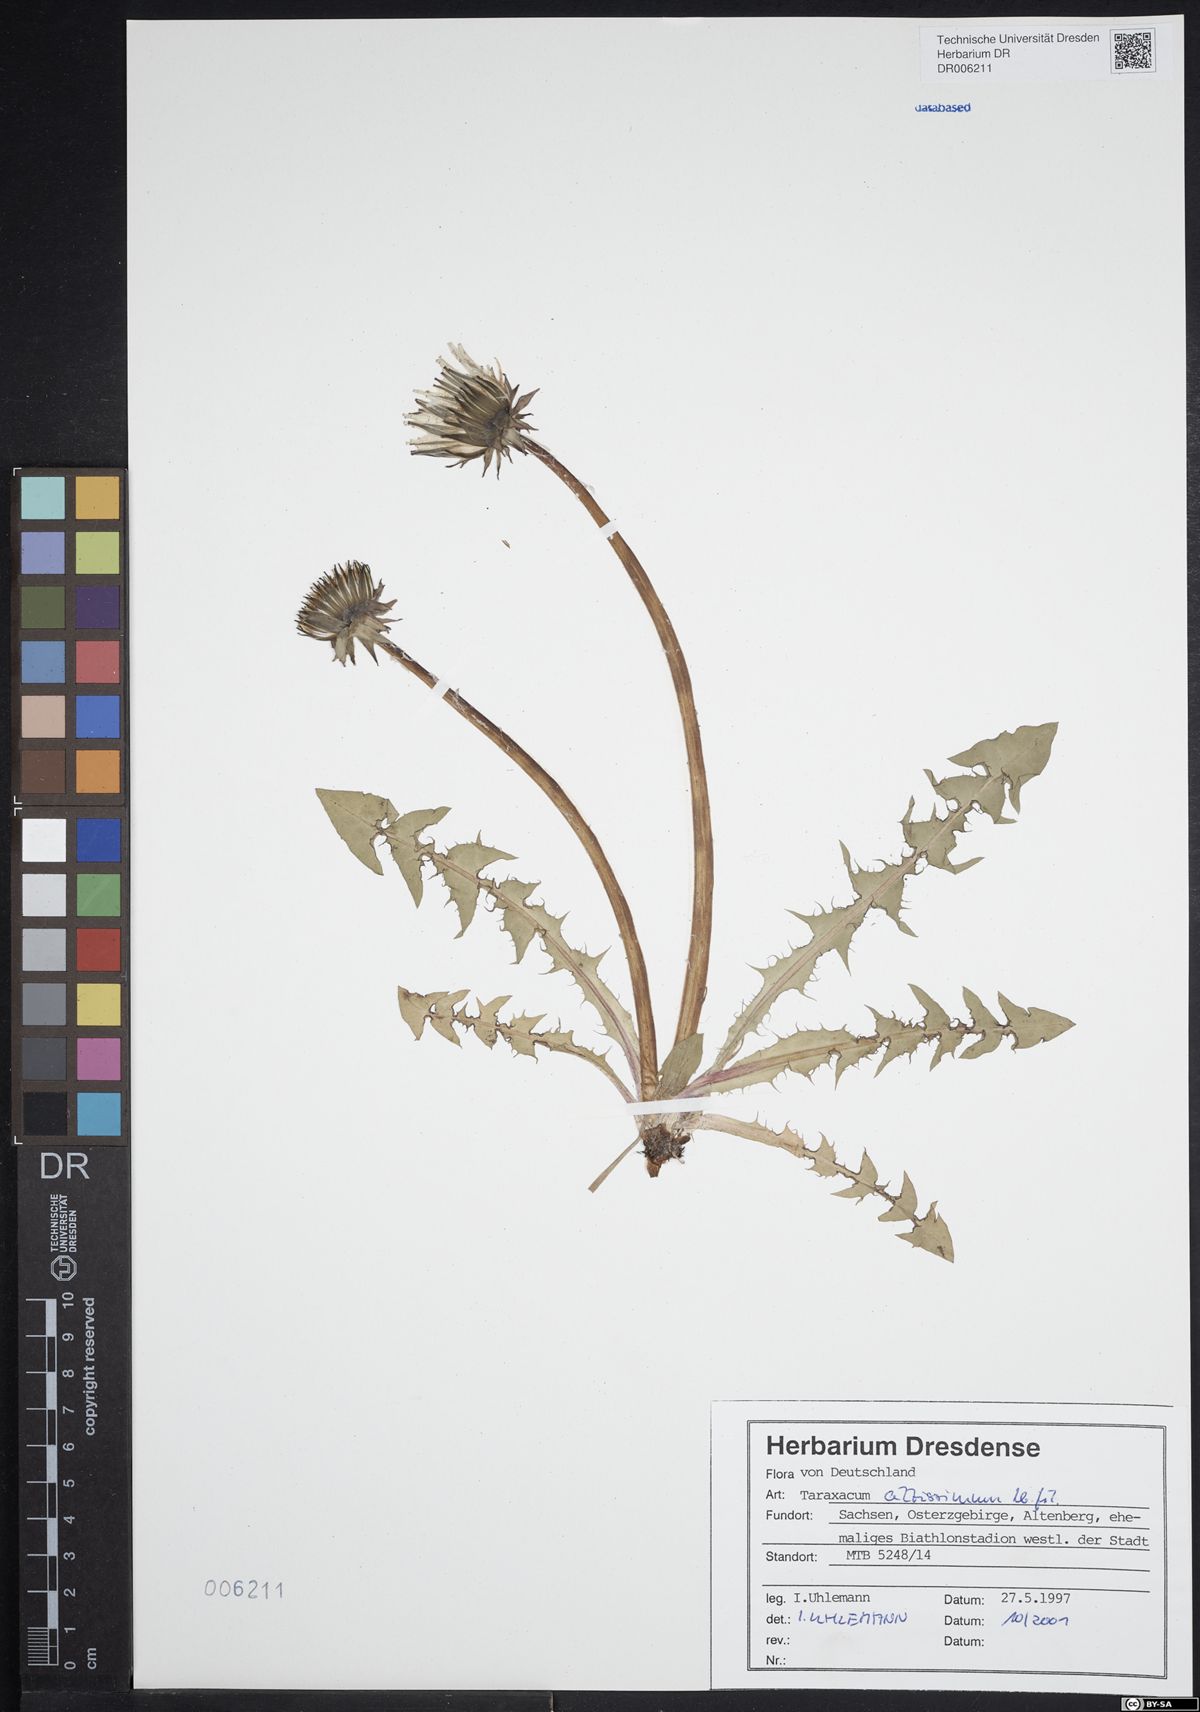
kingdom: Plantae
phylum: Tracheophyta
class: Magnoliopsida
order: Asterales
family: Asteraceae
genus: Taraxacum
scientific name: Taraxacum altissimum
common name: Tall dandelion
